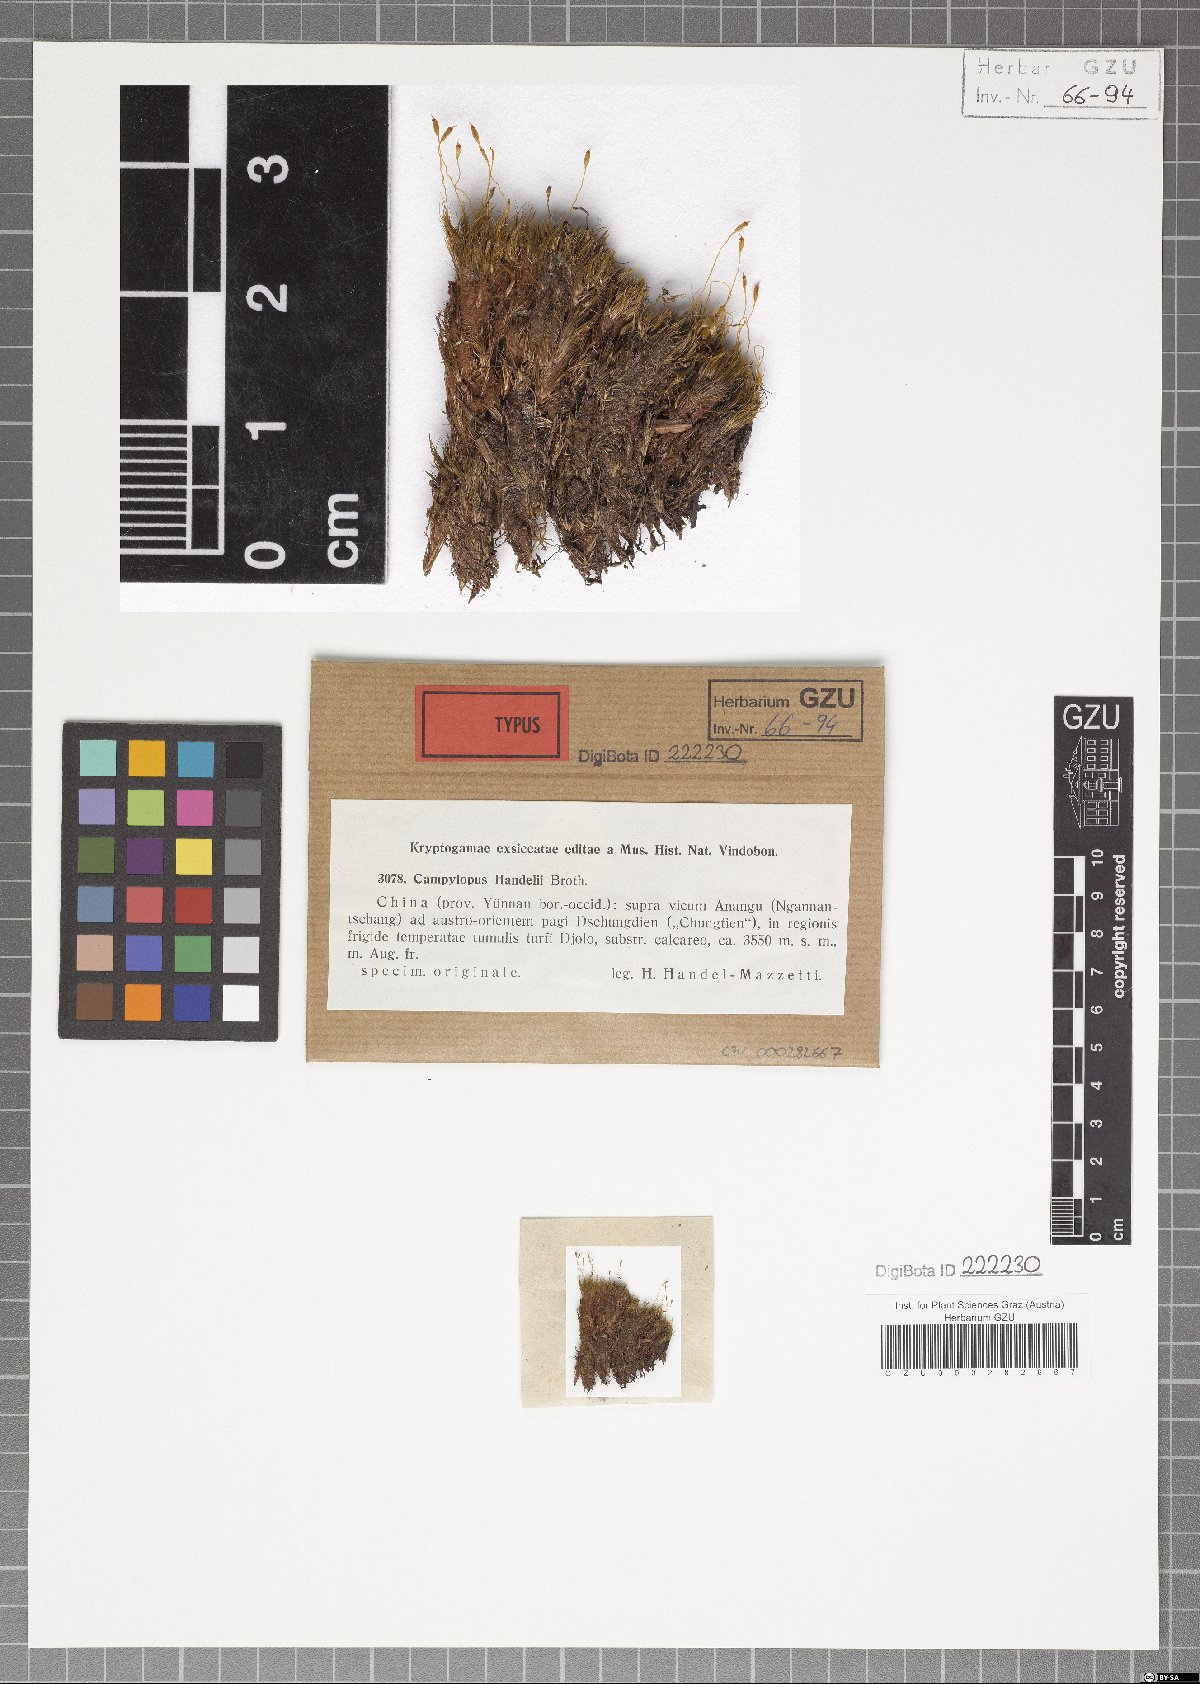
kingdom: Plantae
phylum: Bryophyta
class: Bryopsida
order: Dicranales
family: Leucobryaceae
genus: Campylopus
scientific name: Campylopus schimperi
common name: Schimper's swan-neck moss
